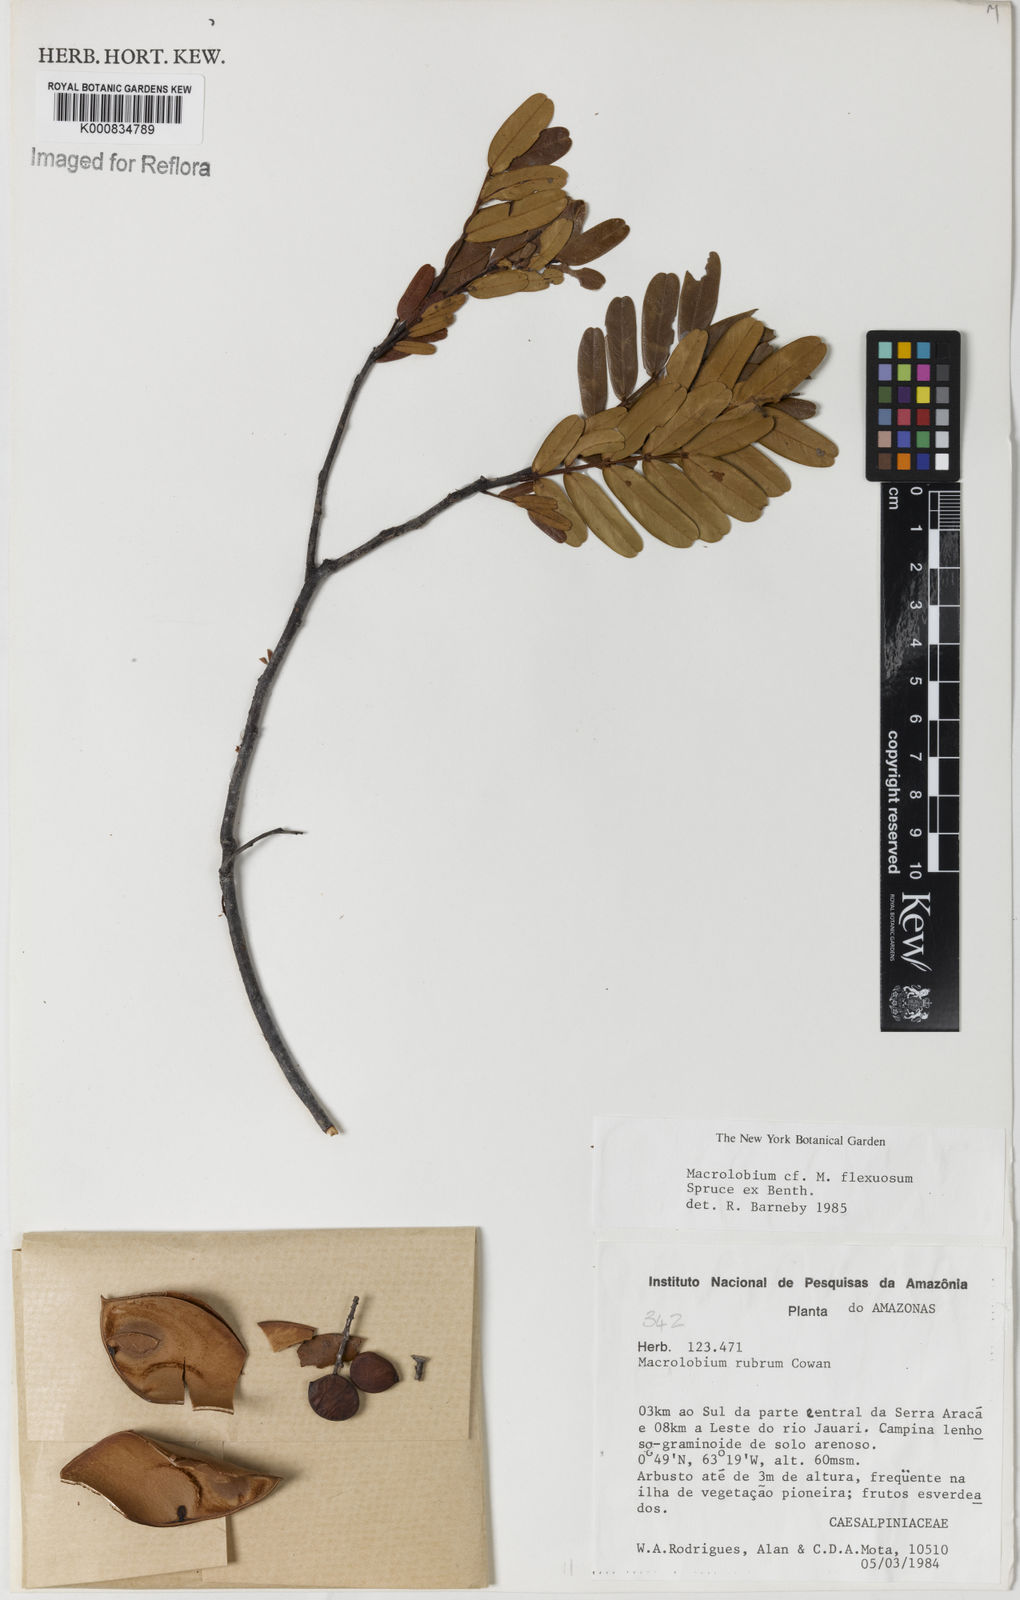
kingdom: Plantae
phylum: Tracheophyta
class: Magnoliopsida
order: Fabales
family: Fabaceae
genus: Macrolobium
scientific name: Macrolobium
